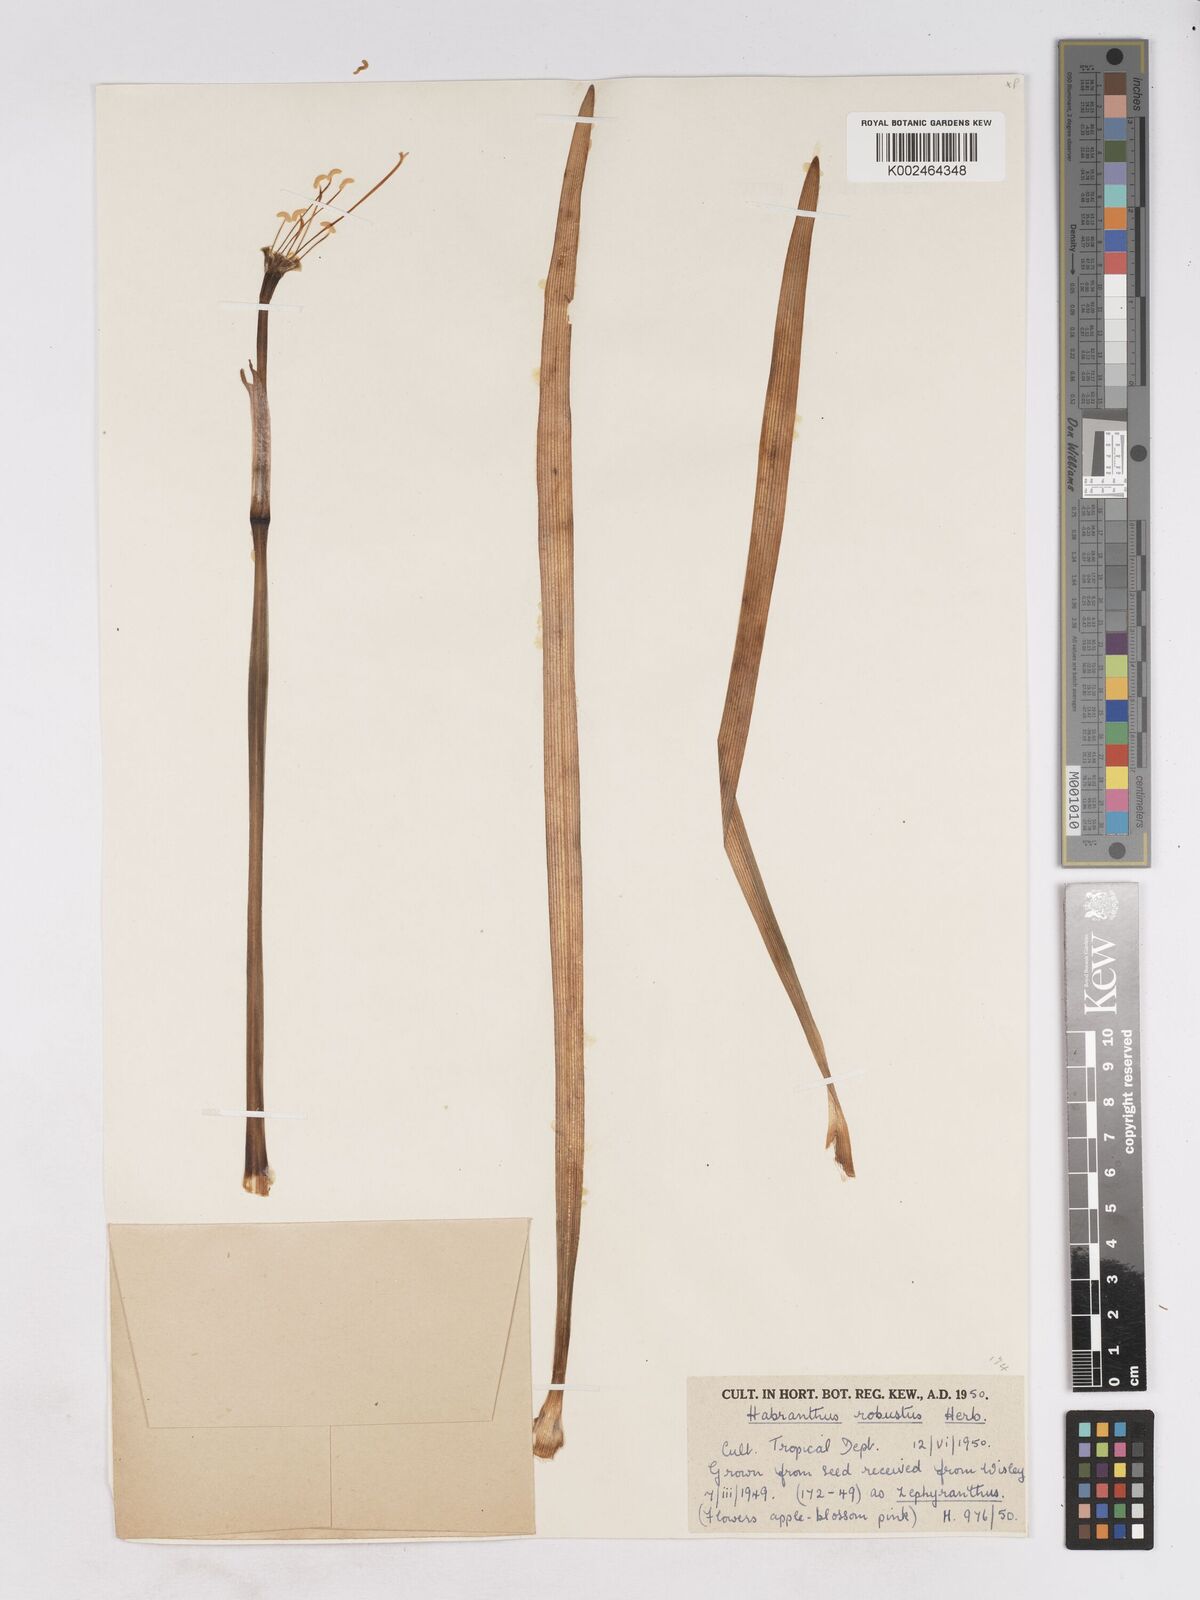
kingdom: Plantae
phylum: Tracheophyta
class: Liliopsida
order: Asparagales
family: Amaryllidaceae
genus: Zephyranthes
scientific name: Zephyranthes robusta
